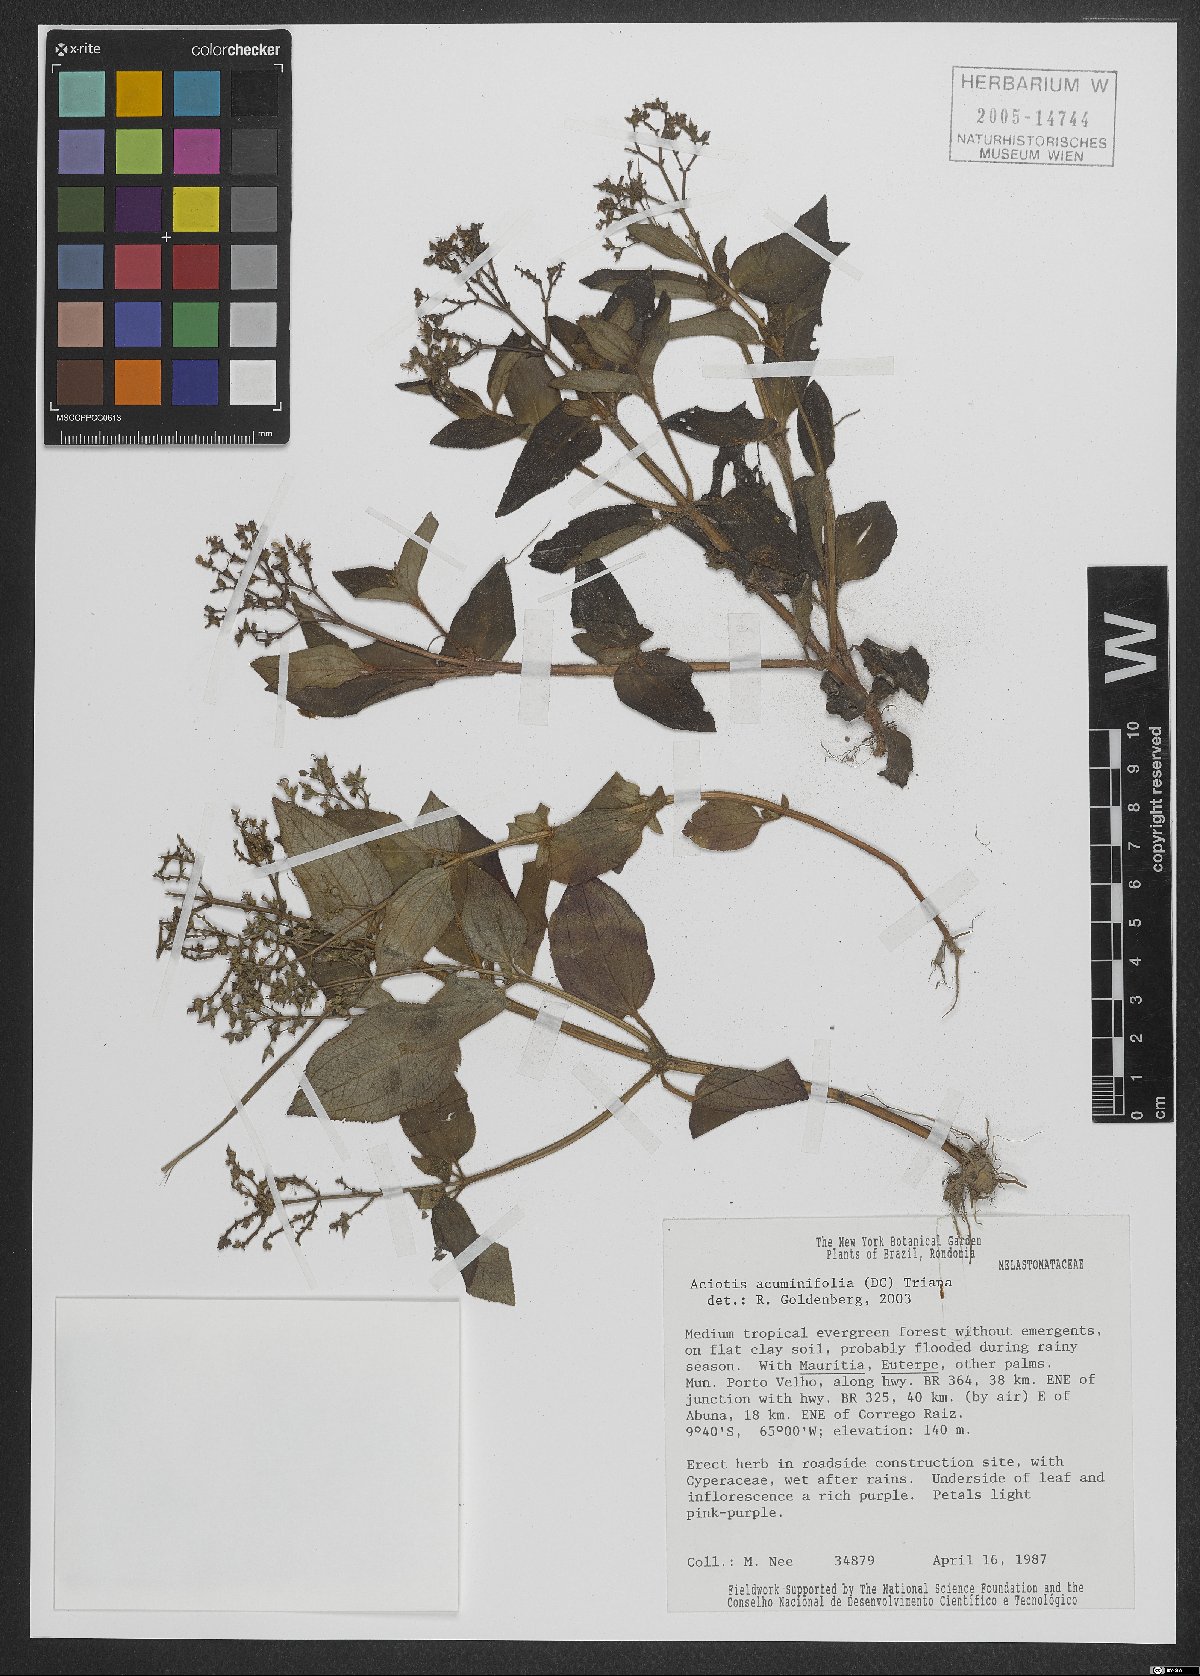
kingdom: Plantae
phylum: Tracheophyta
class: Magnoliopsida
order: Myrtales
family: Melastomataceae
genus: Aciotis
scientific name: Aciotis acuminifolia
